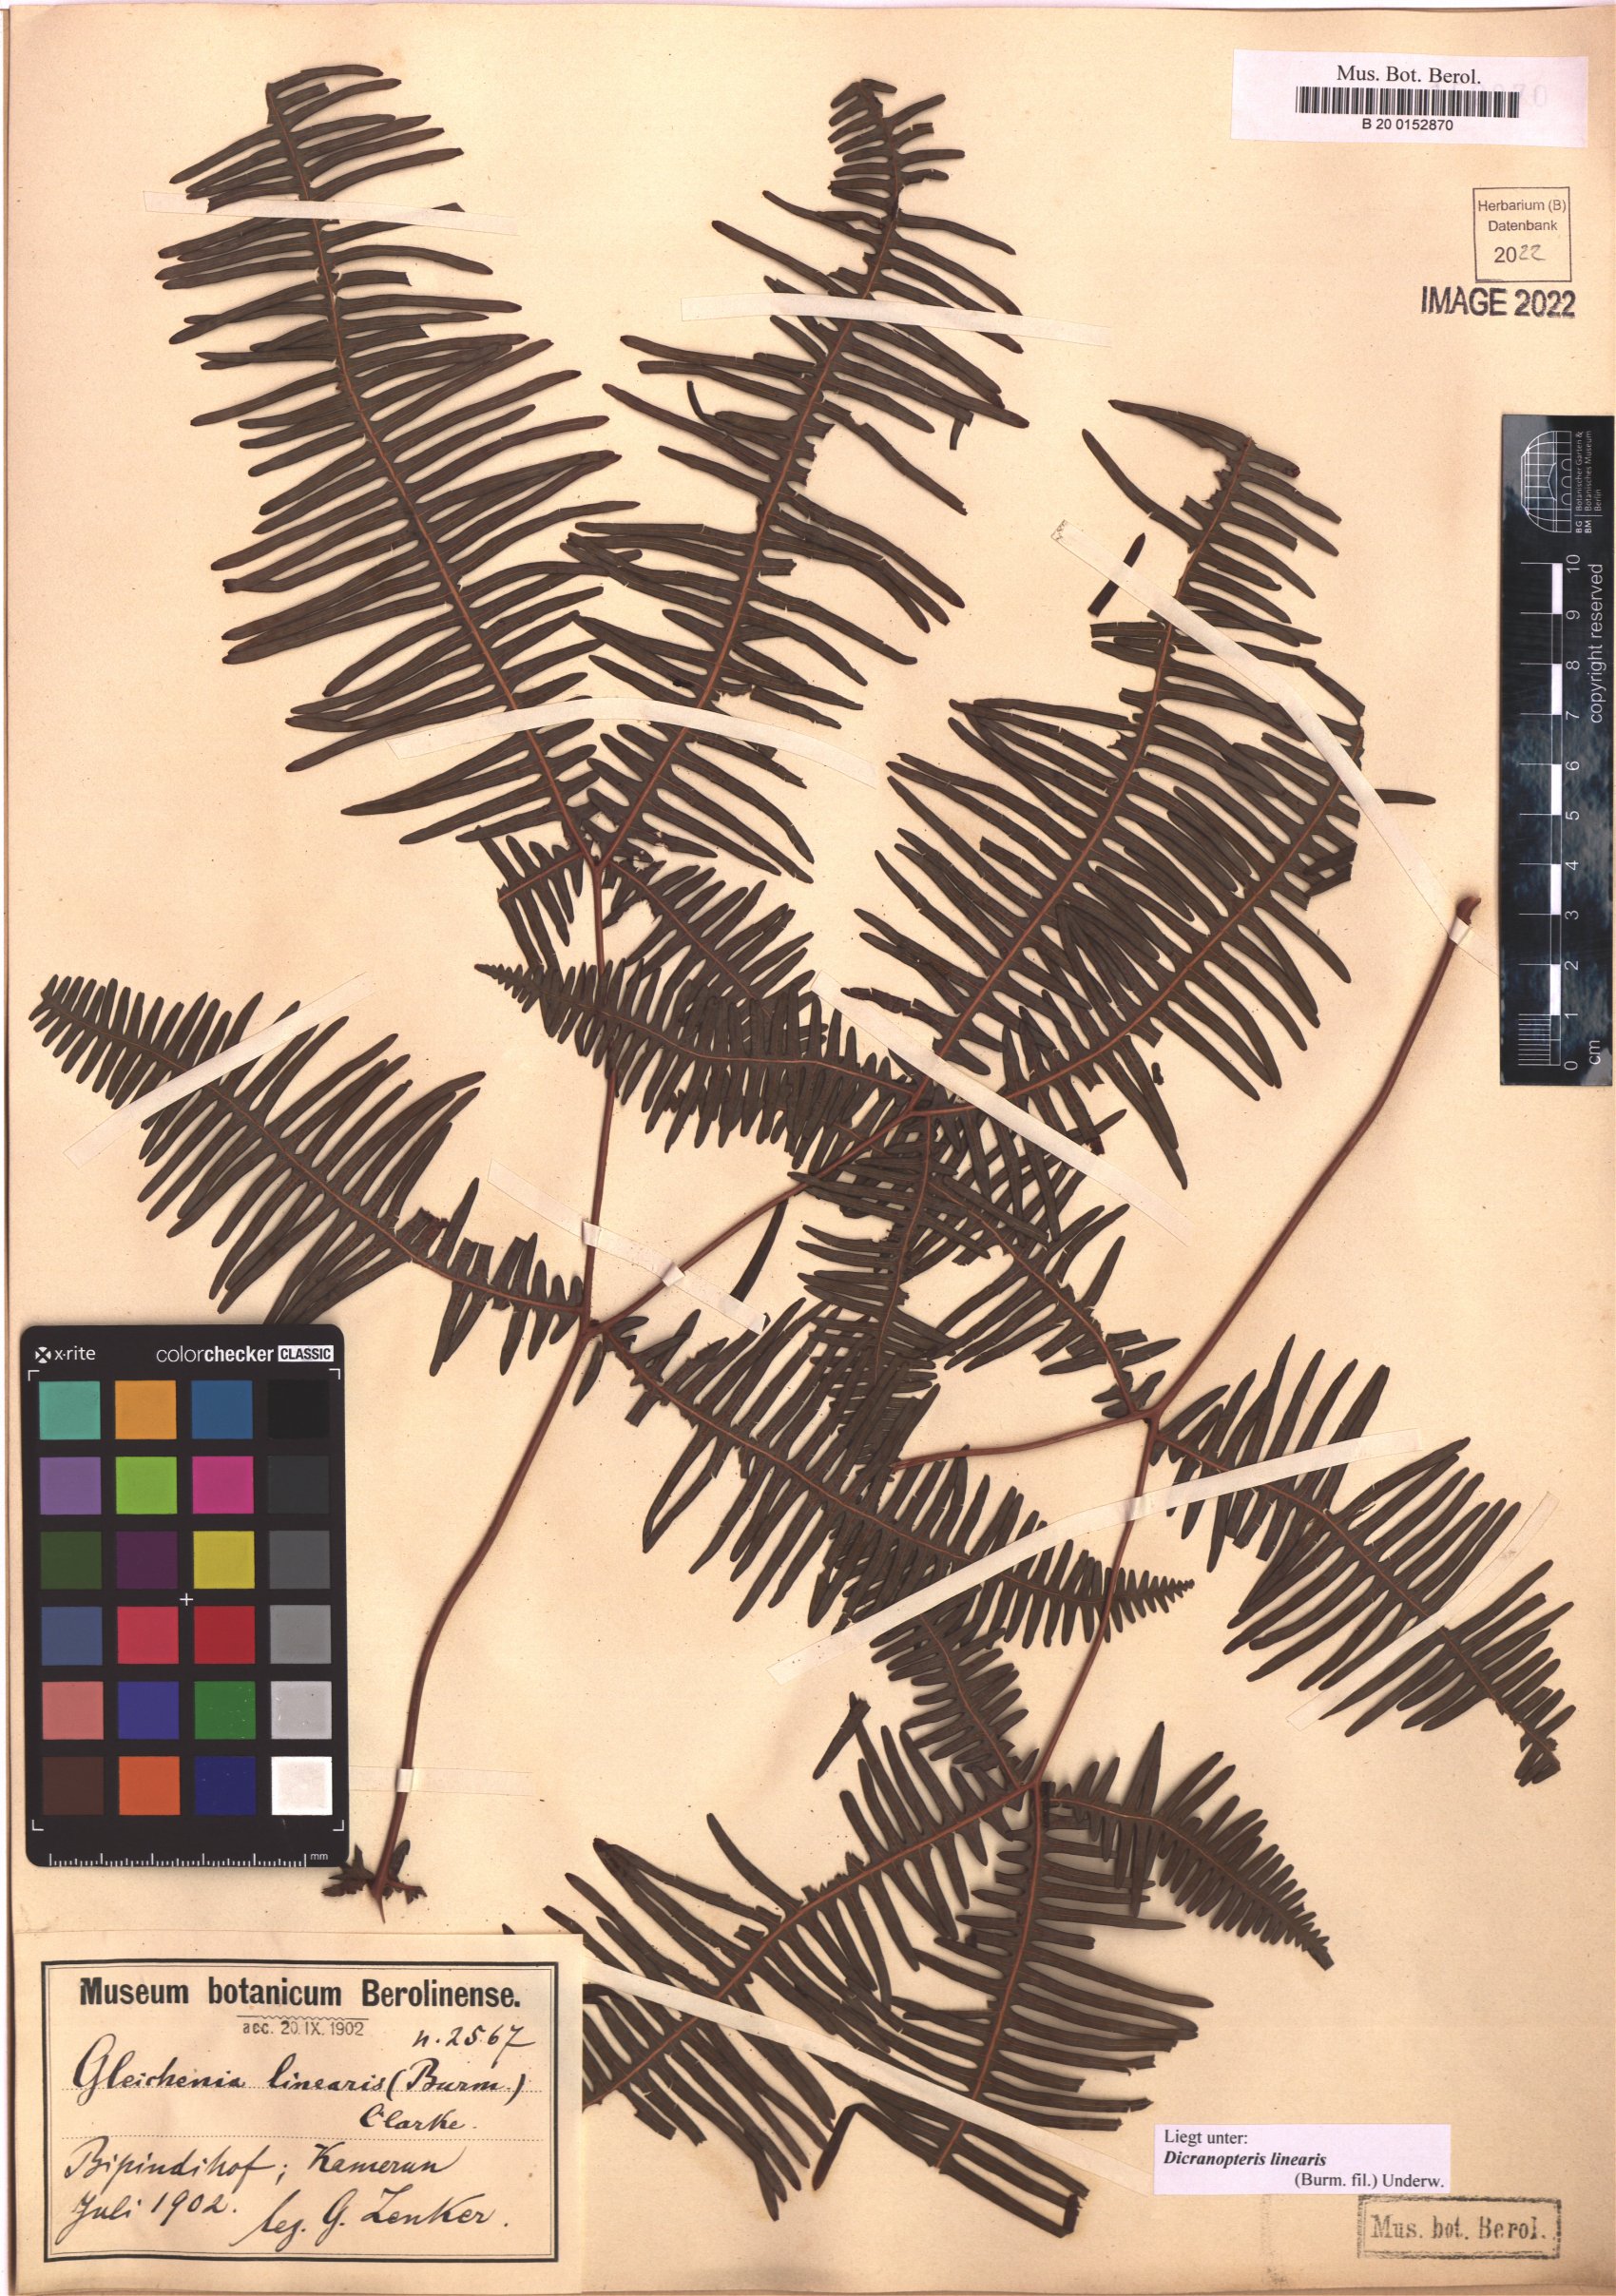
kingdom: Plantae
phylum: Tracheophyta
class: Polypodiopsida
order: Gleicheniales
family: Gleicheniaceae
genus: Dicranopteris
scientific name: Dicranopteris linearis
